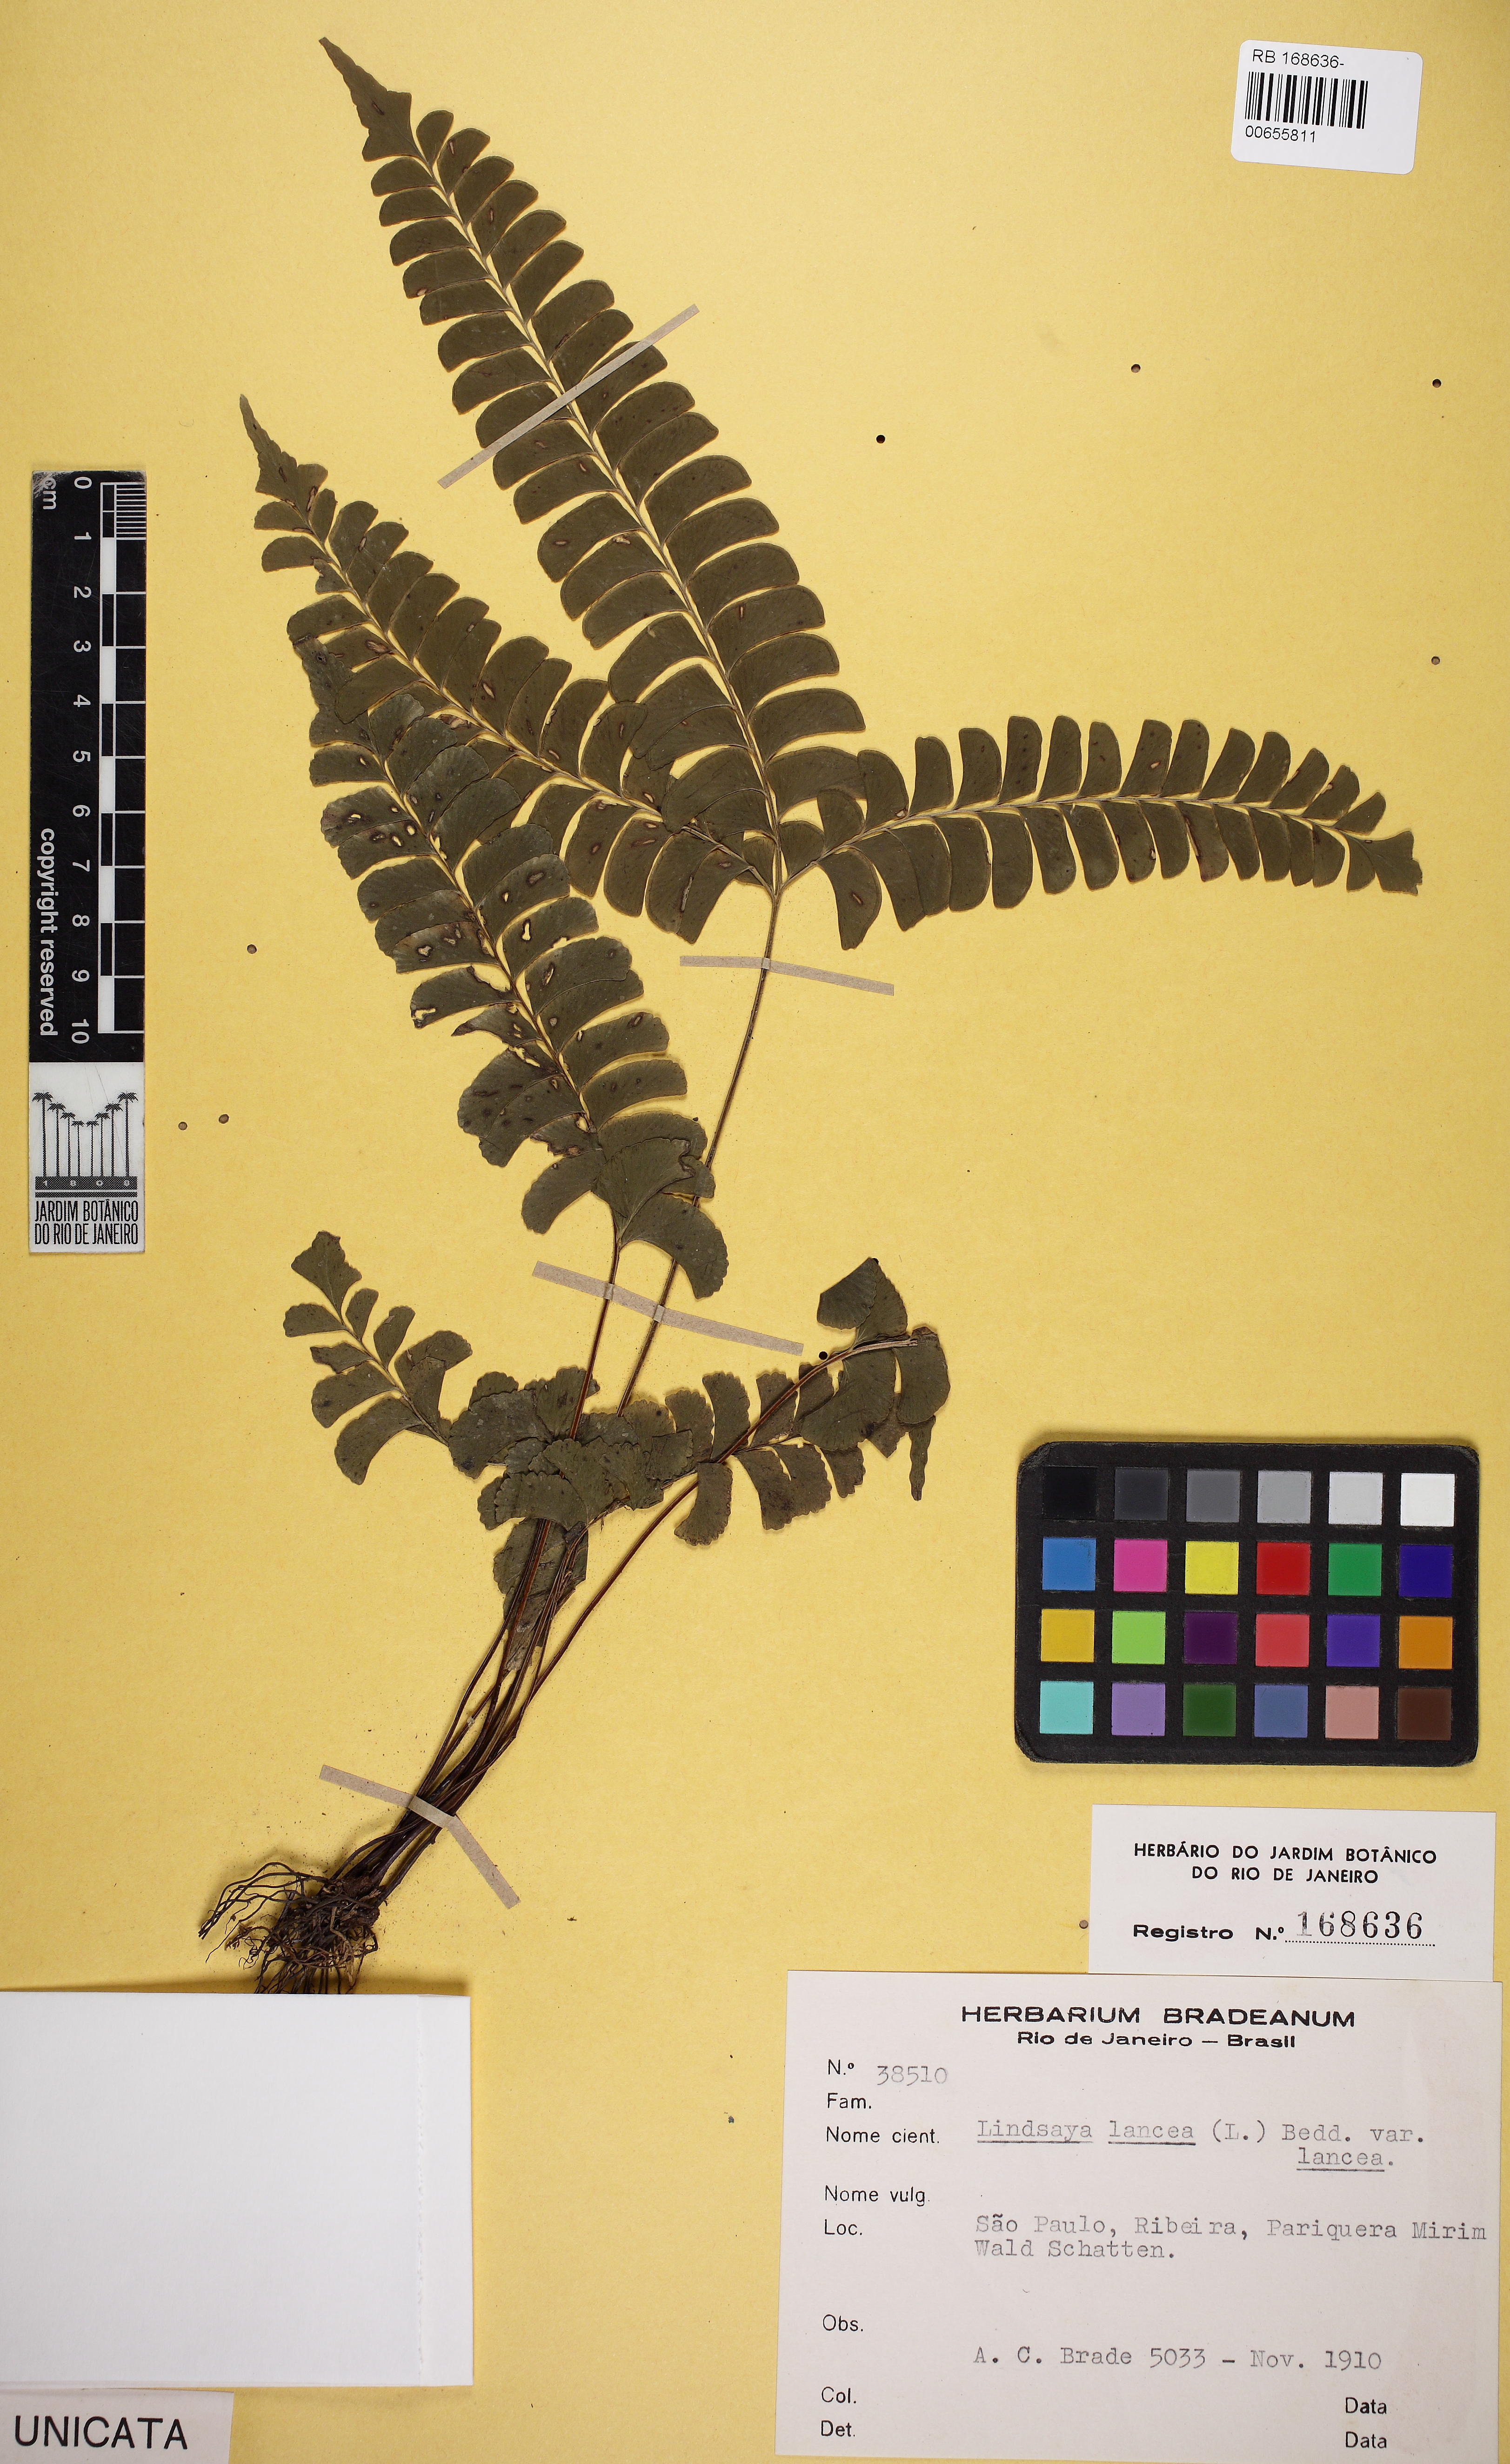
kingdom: Plantae
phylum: Tracheophyta
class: Polypodiopsida
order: Polypodiales
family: Lindsaeaceae
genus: Lindsaea
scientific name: Lindsaea lancea
